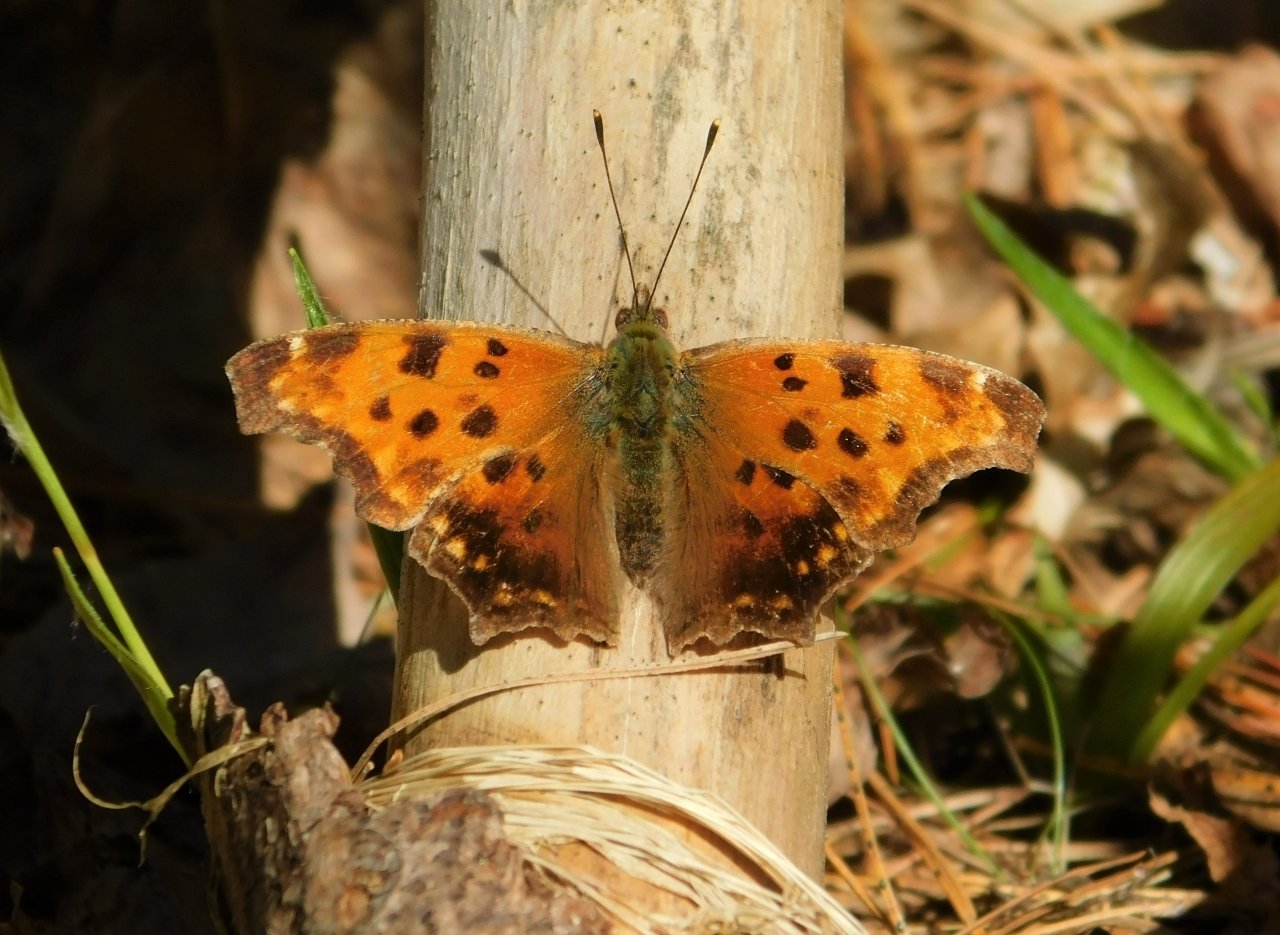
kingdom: Animalia
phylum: Arthropoda
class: Insecta
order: Lepidoptera
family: Nymphalidae
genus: Polygonia
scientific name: Polygonia comma
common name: Eastern Comma
